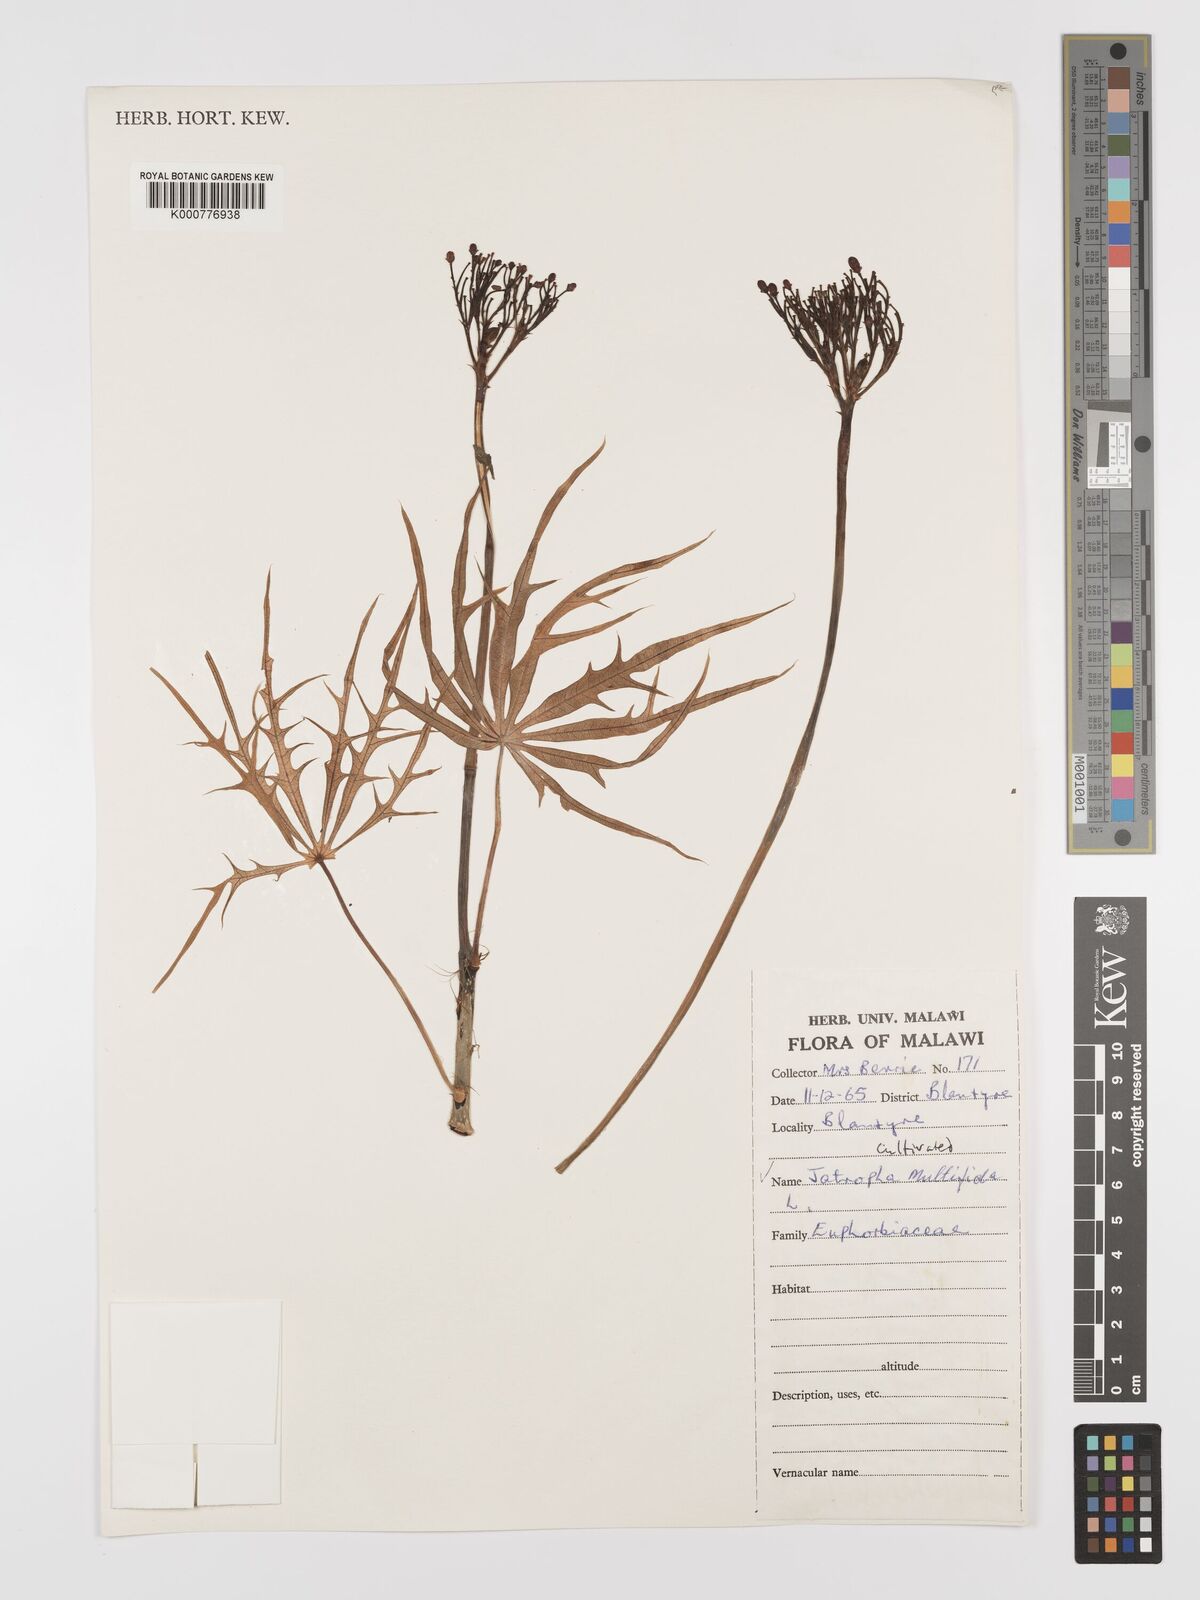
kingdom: Plantae
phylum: Tracheophyta
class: Magnoliopsida
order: Malpighiales
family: Euphorbiaceae
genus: Jatropha
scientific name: Jatropha multifida
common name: Coralbush
